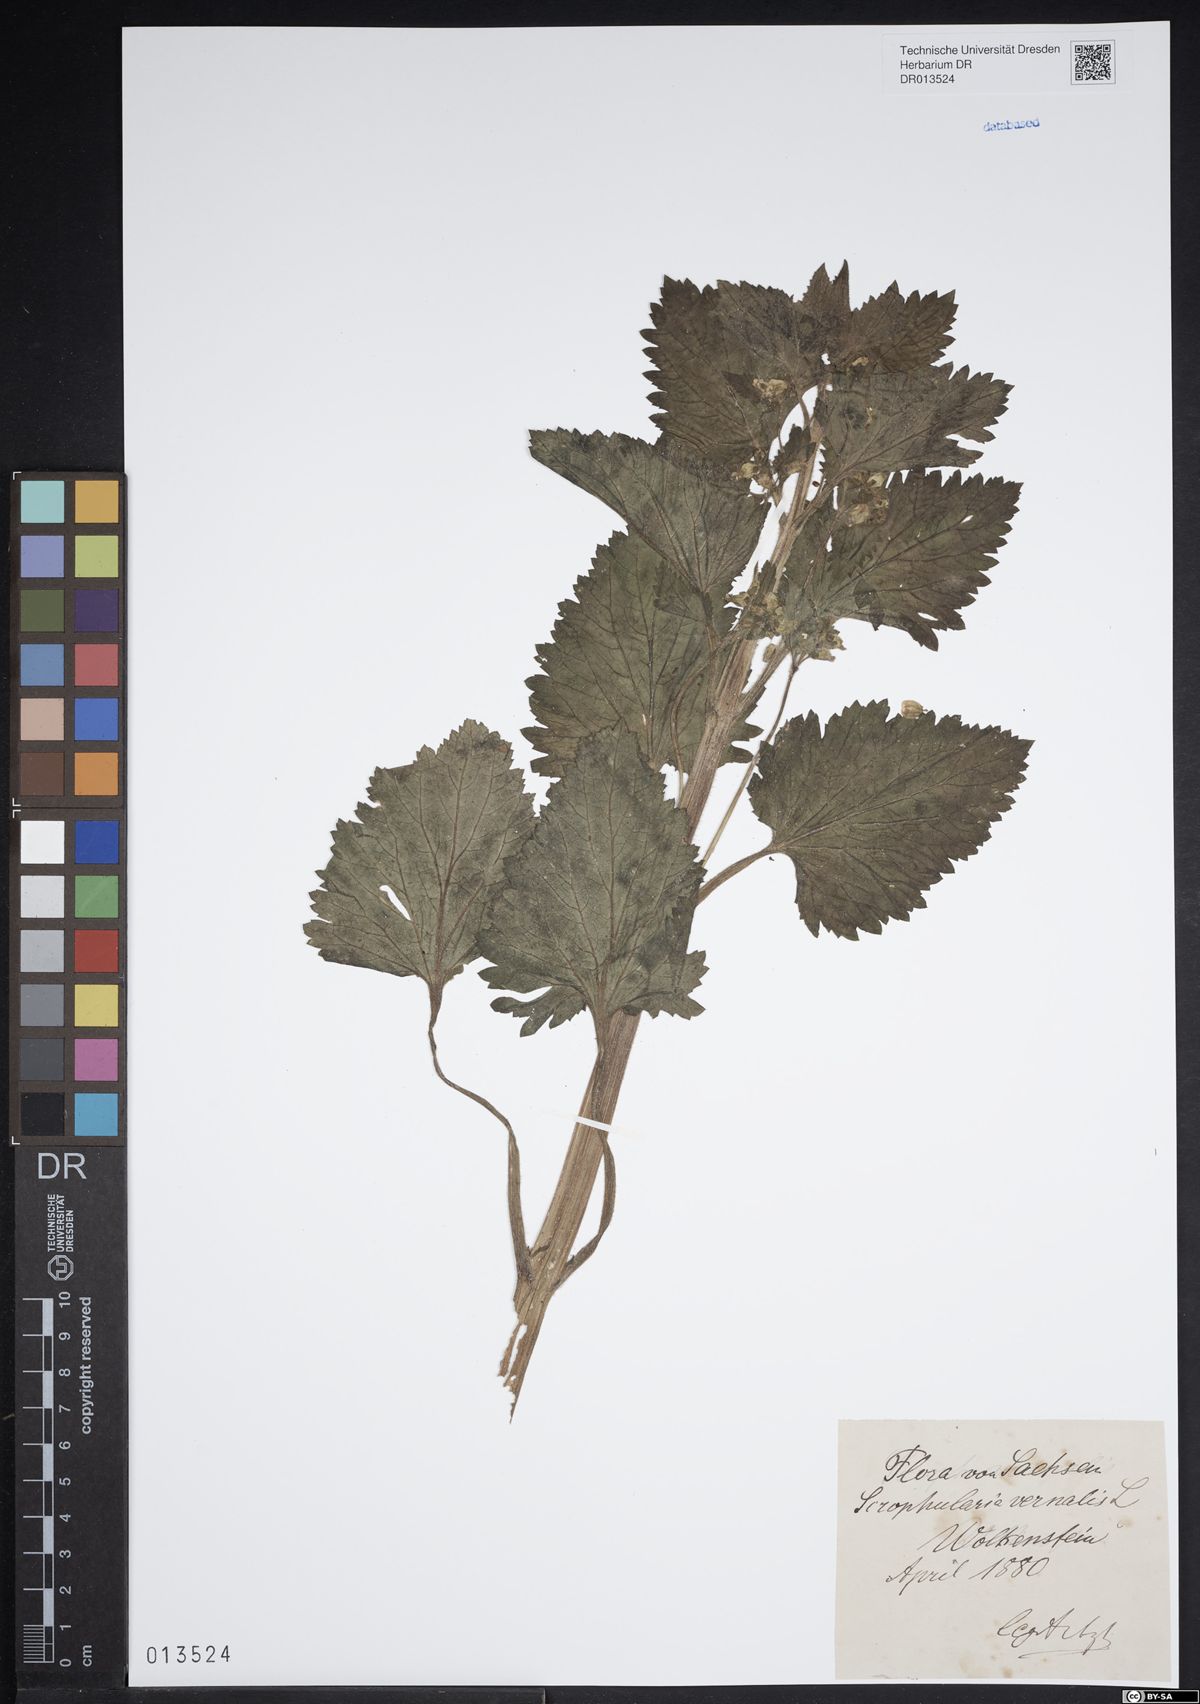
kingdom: Plantae
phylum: Tracheophyta
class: Magnoliopsida
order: Lamiales
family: Scrophulariaceae
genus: Scrophularia
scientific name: Scrophularia vernalis
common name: Yellow figwort
